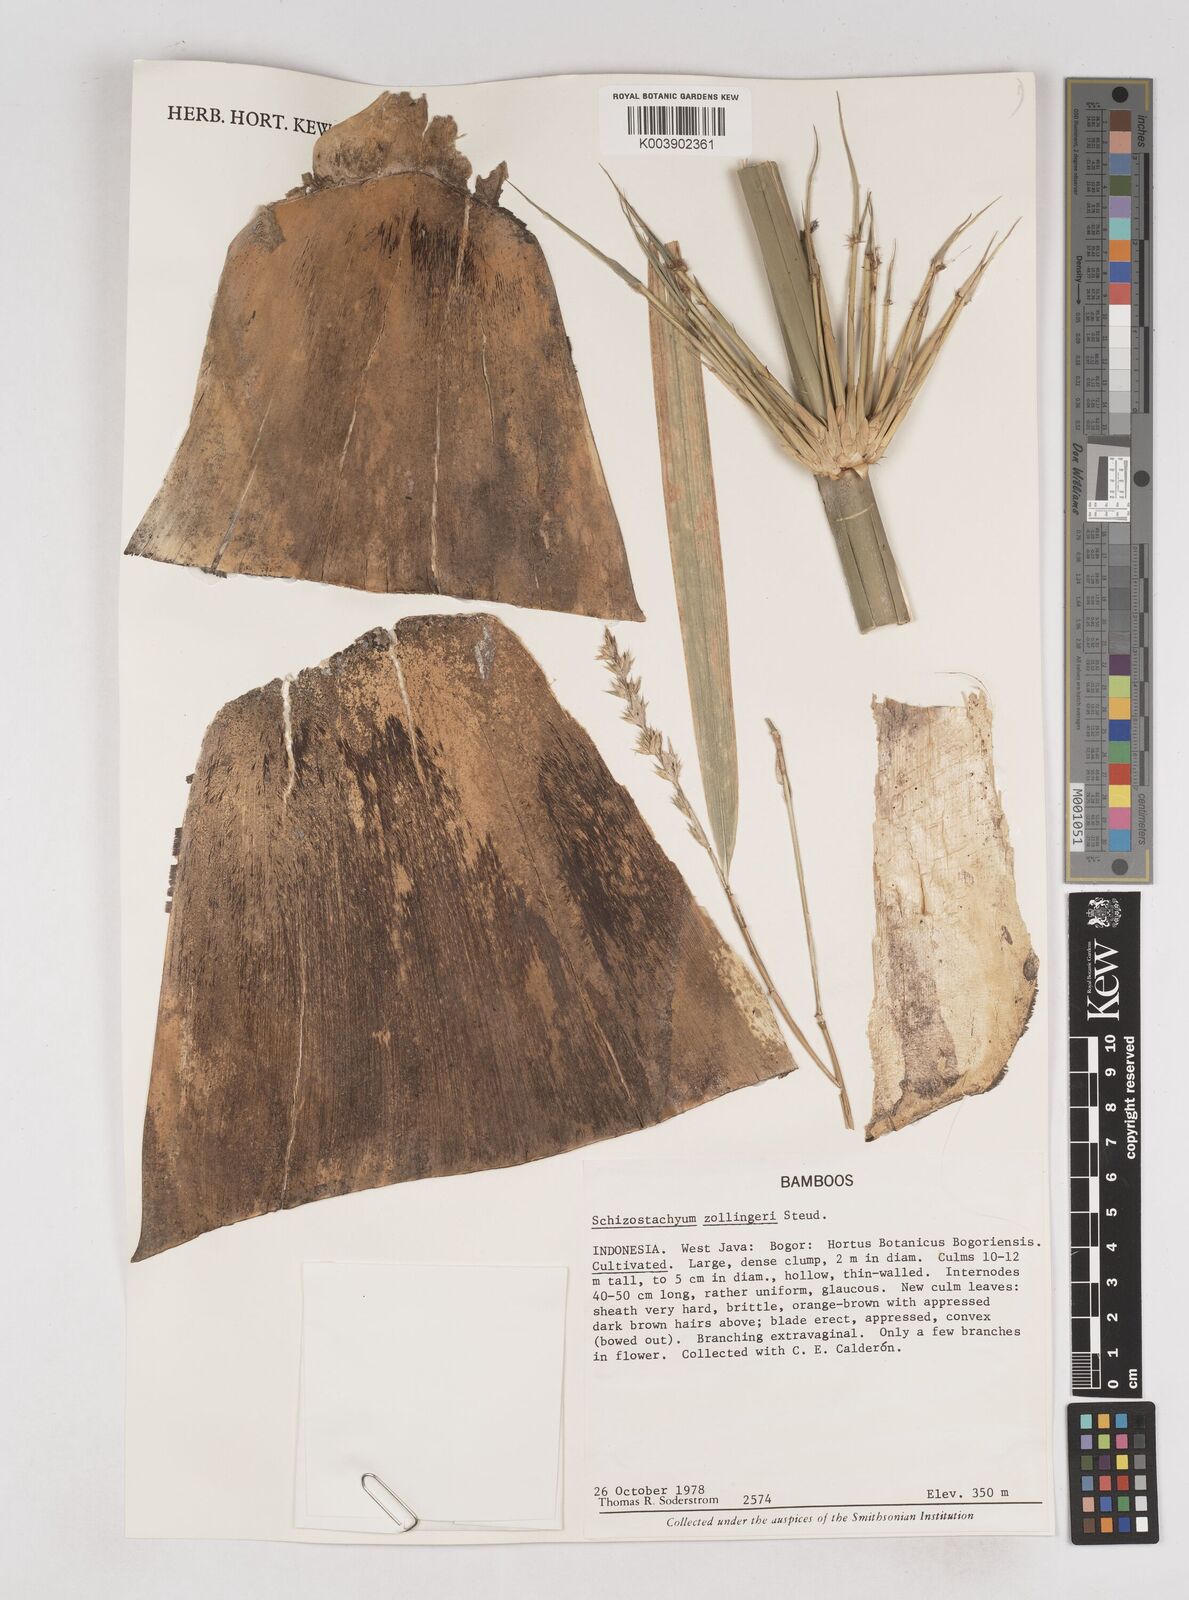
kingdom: Plantae
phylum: Tracheophyta
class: Liliopsida
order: Poales
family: Poaceae
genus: Schizostachyum
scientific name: Schizostachyum zollingeri
